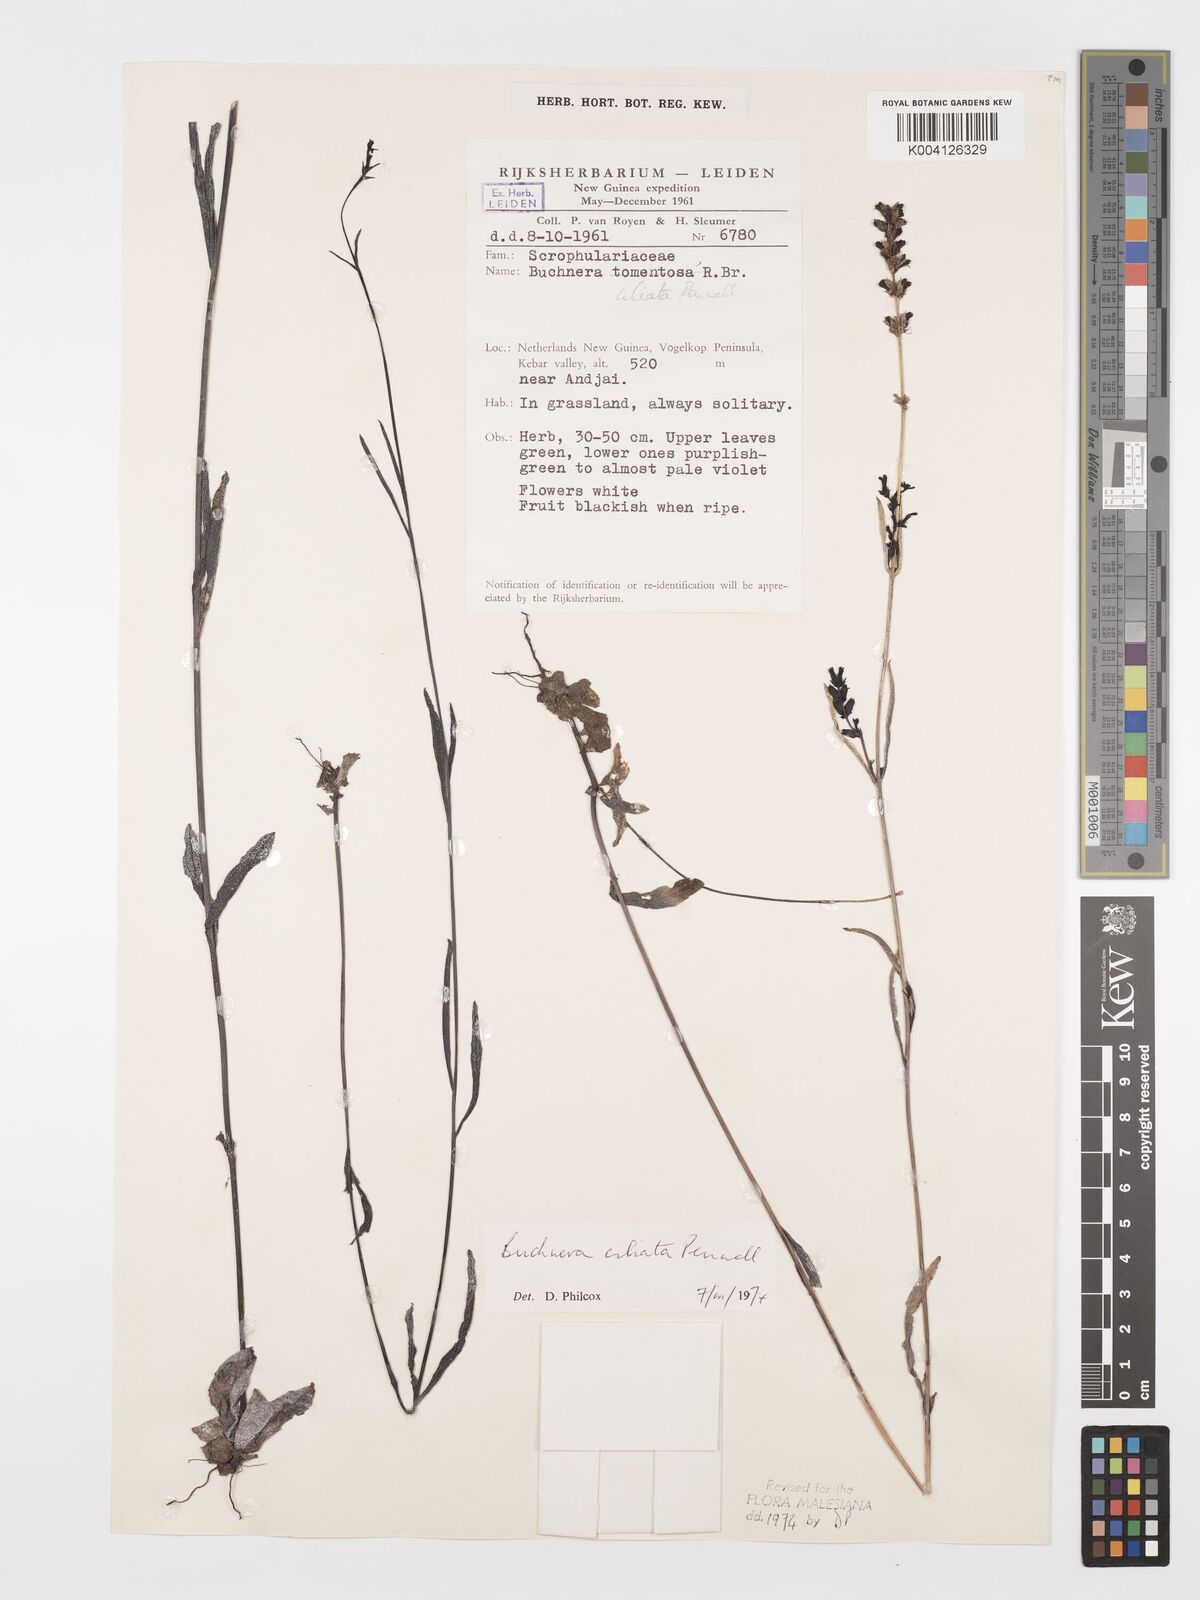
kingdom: Plantae
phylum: Tracheophyta
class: Magnoliopsida
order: Lamiales
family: Orobanchaceae
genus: Buchnera
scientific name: Buchnera ciliata
